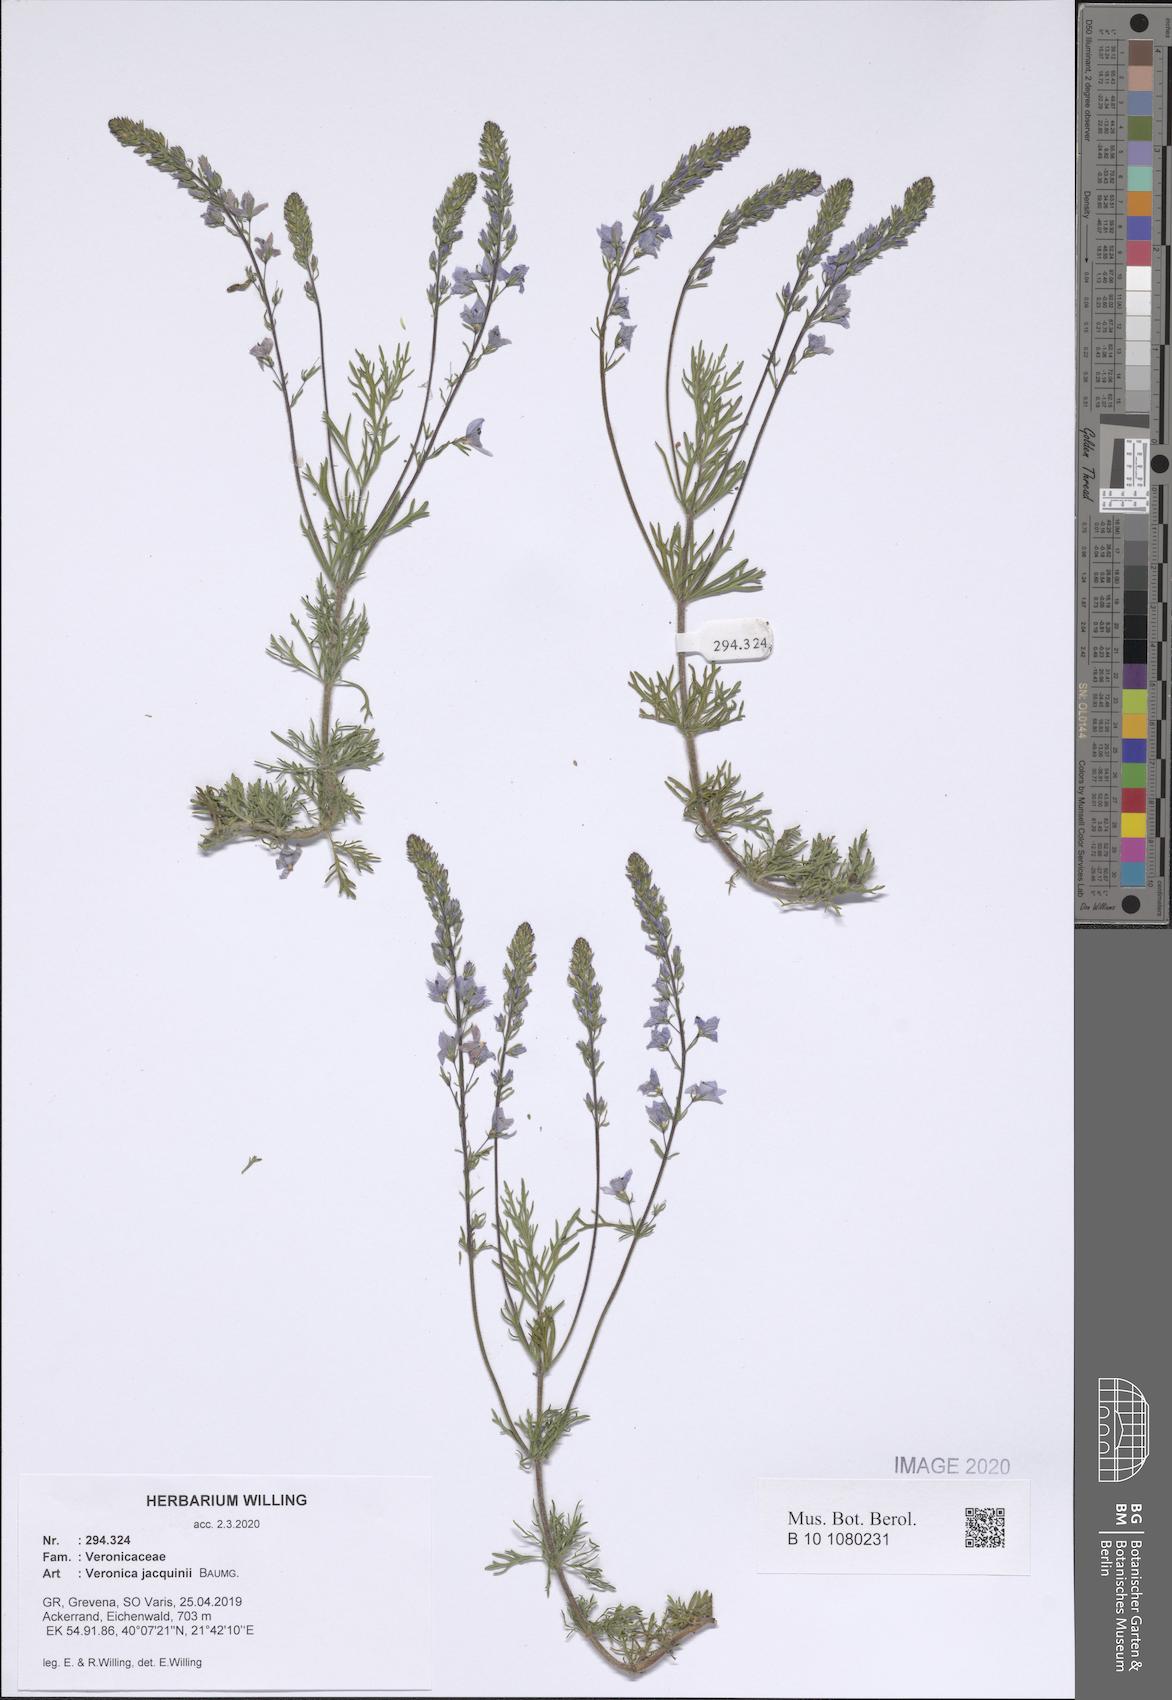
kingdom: Plantae
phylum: Tracheophyta
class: Magnoliopsida
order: Lamiales
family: Plantaginaceae
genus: Veronica
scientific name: Veronica austriaca
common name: Large speedwell
